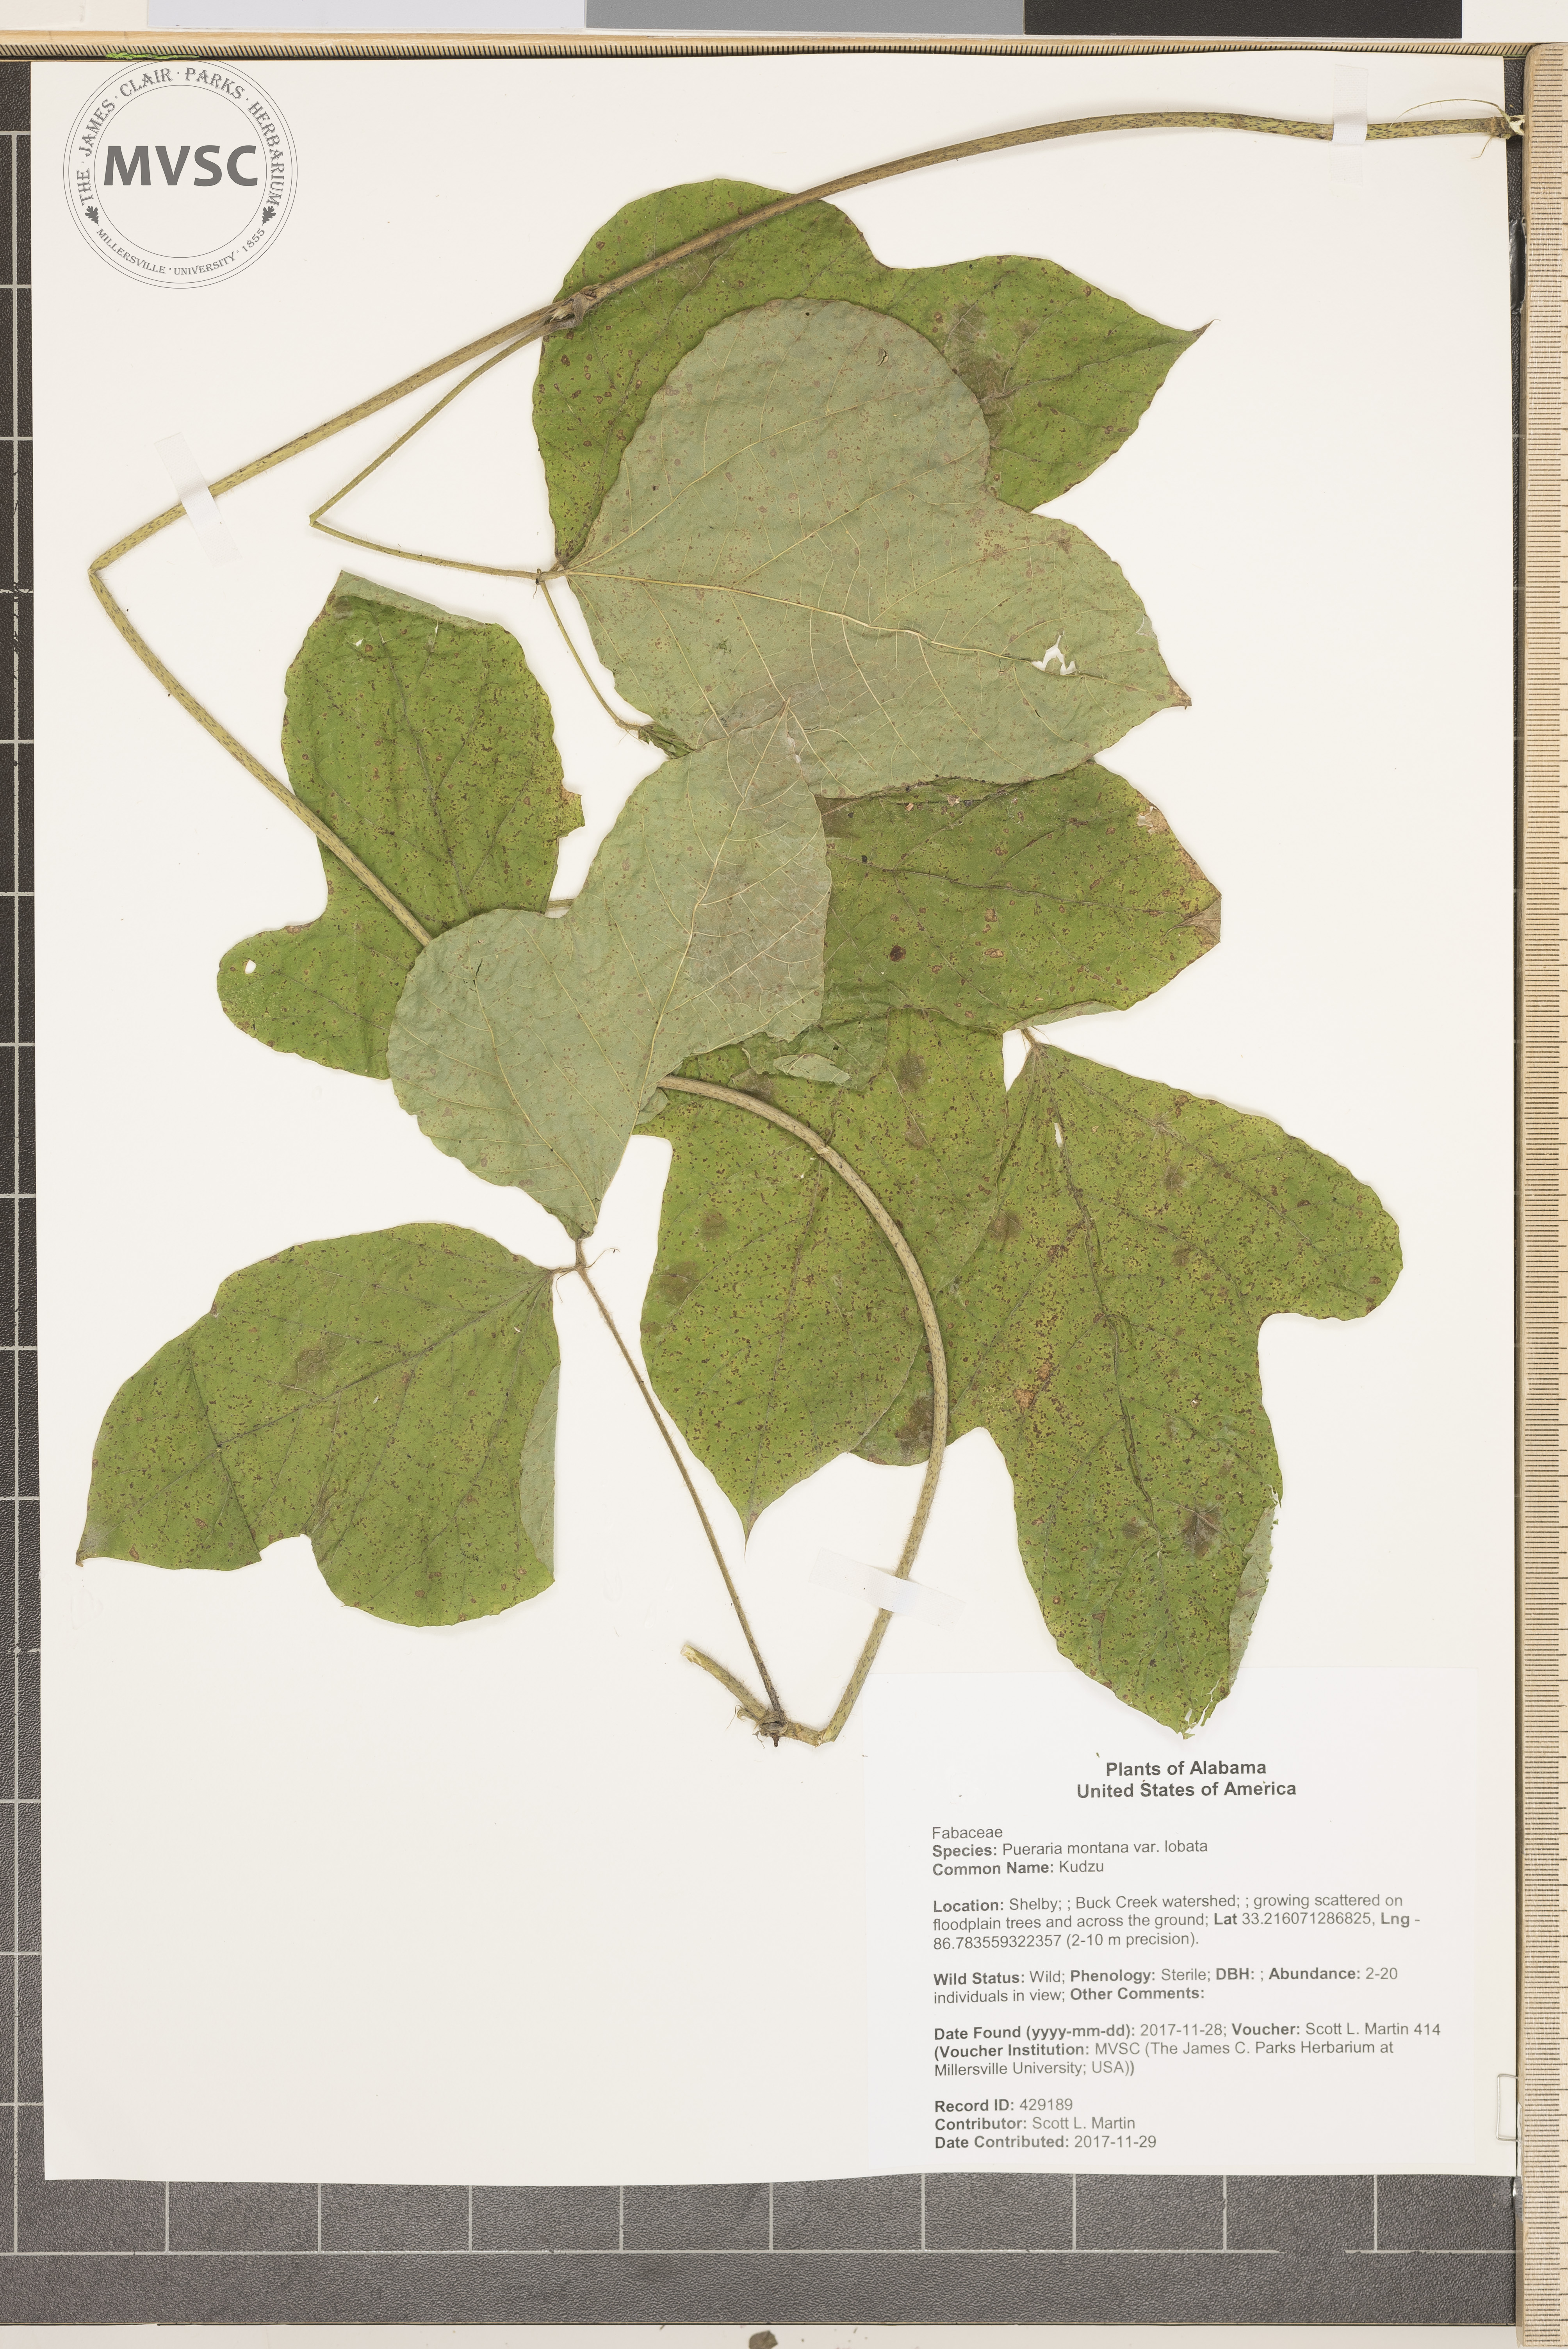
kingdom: Plantae
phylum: Tracheophyta
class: Magnoliopsida
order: Fabales
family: Fabaceae
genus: Pueraria
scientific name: Pueraria montana
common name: Kudzu
